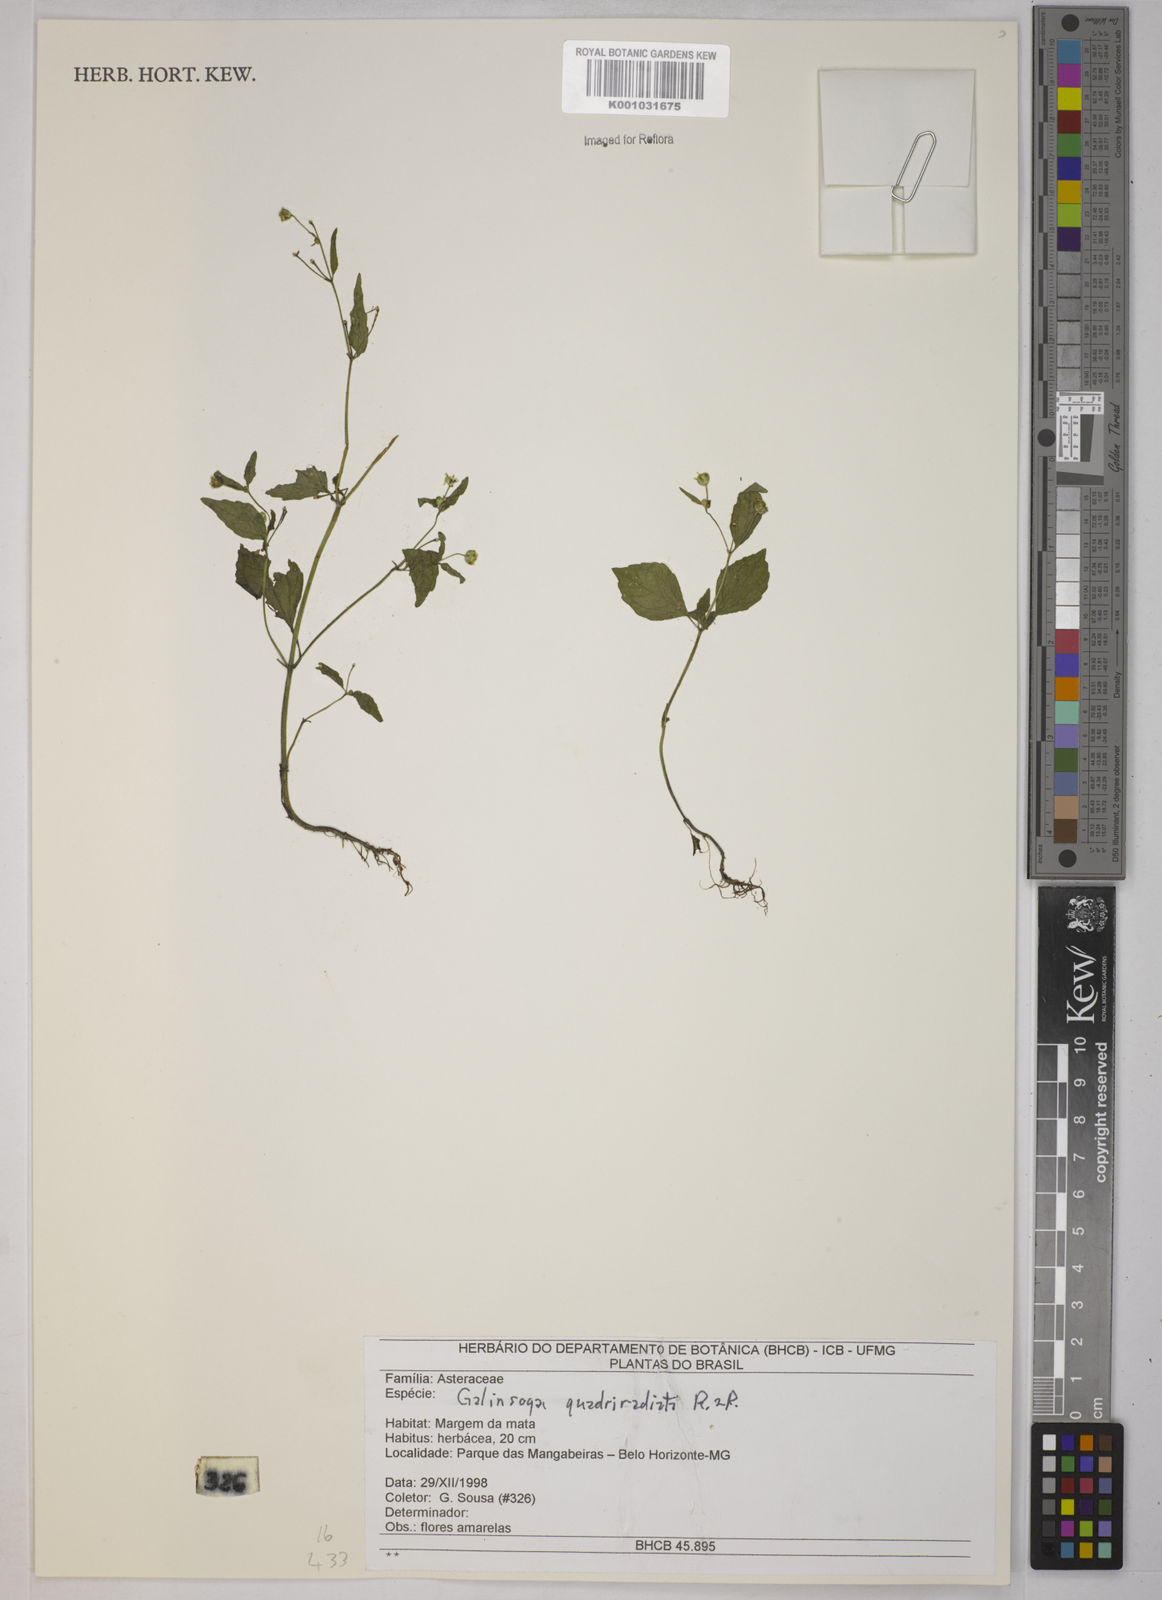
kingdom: Plantae
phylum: Tracheophyta
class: Magnoliopsida
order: Asterales
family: Asteraceae
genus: Galinsoga
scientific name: Galinsoga quadriradiata
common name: Shaggy soldier
